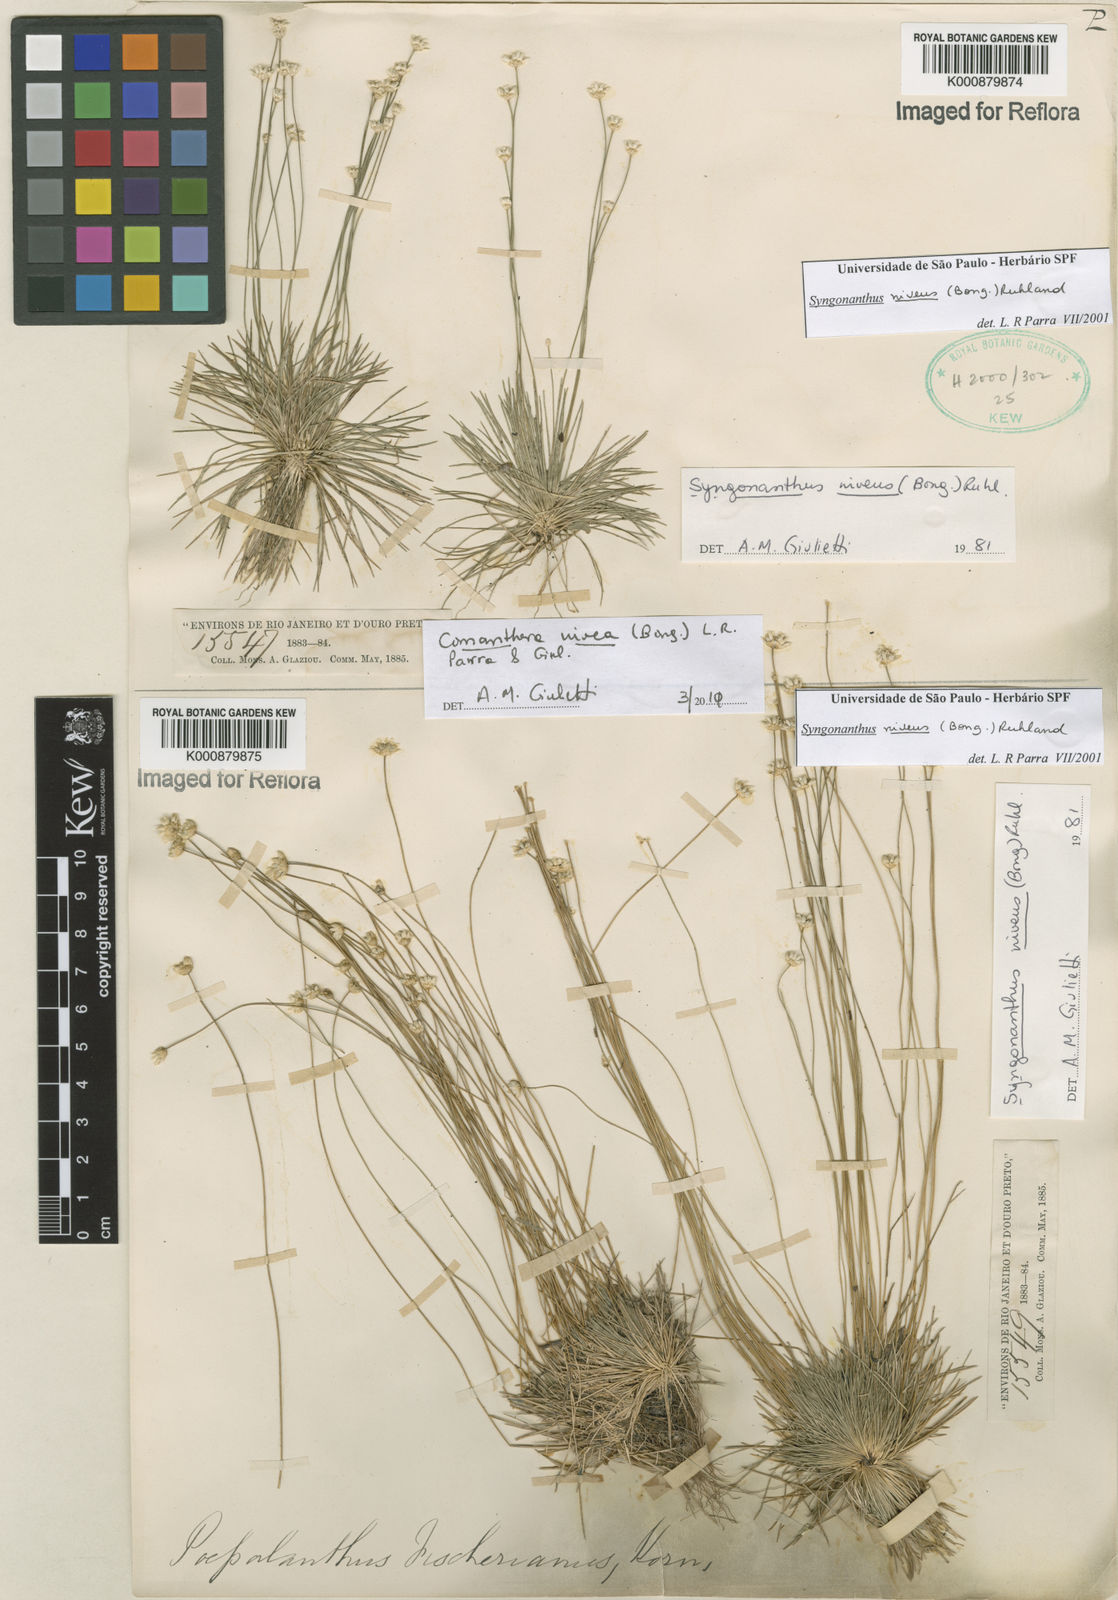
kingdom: Plantae
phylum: Tracheophyta
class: Liliopsida
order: Poales
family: Eriocaulaceae
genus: Comanthera
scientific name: Comanthera nivea
